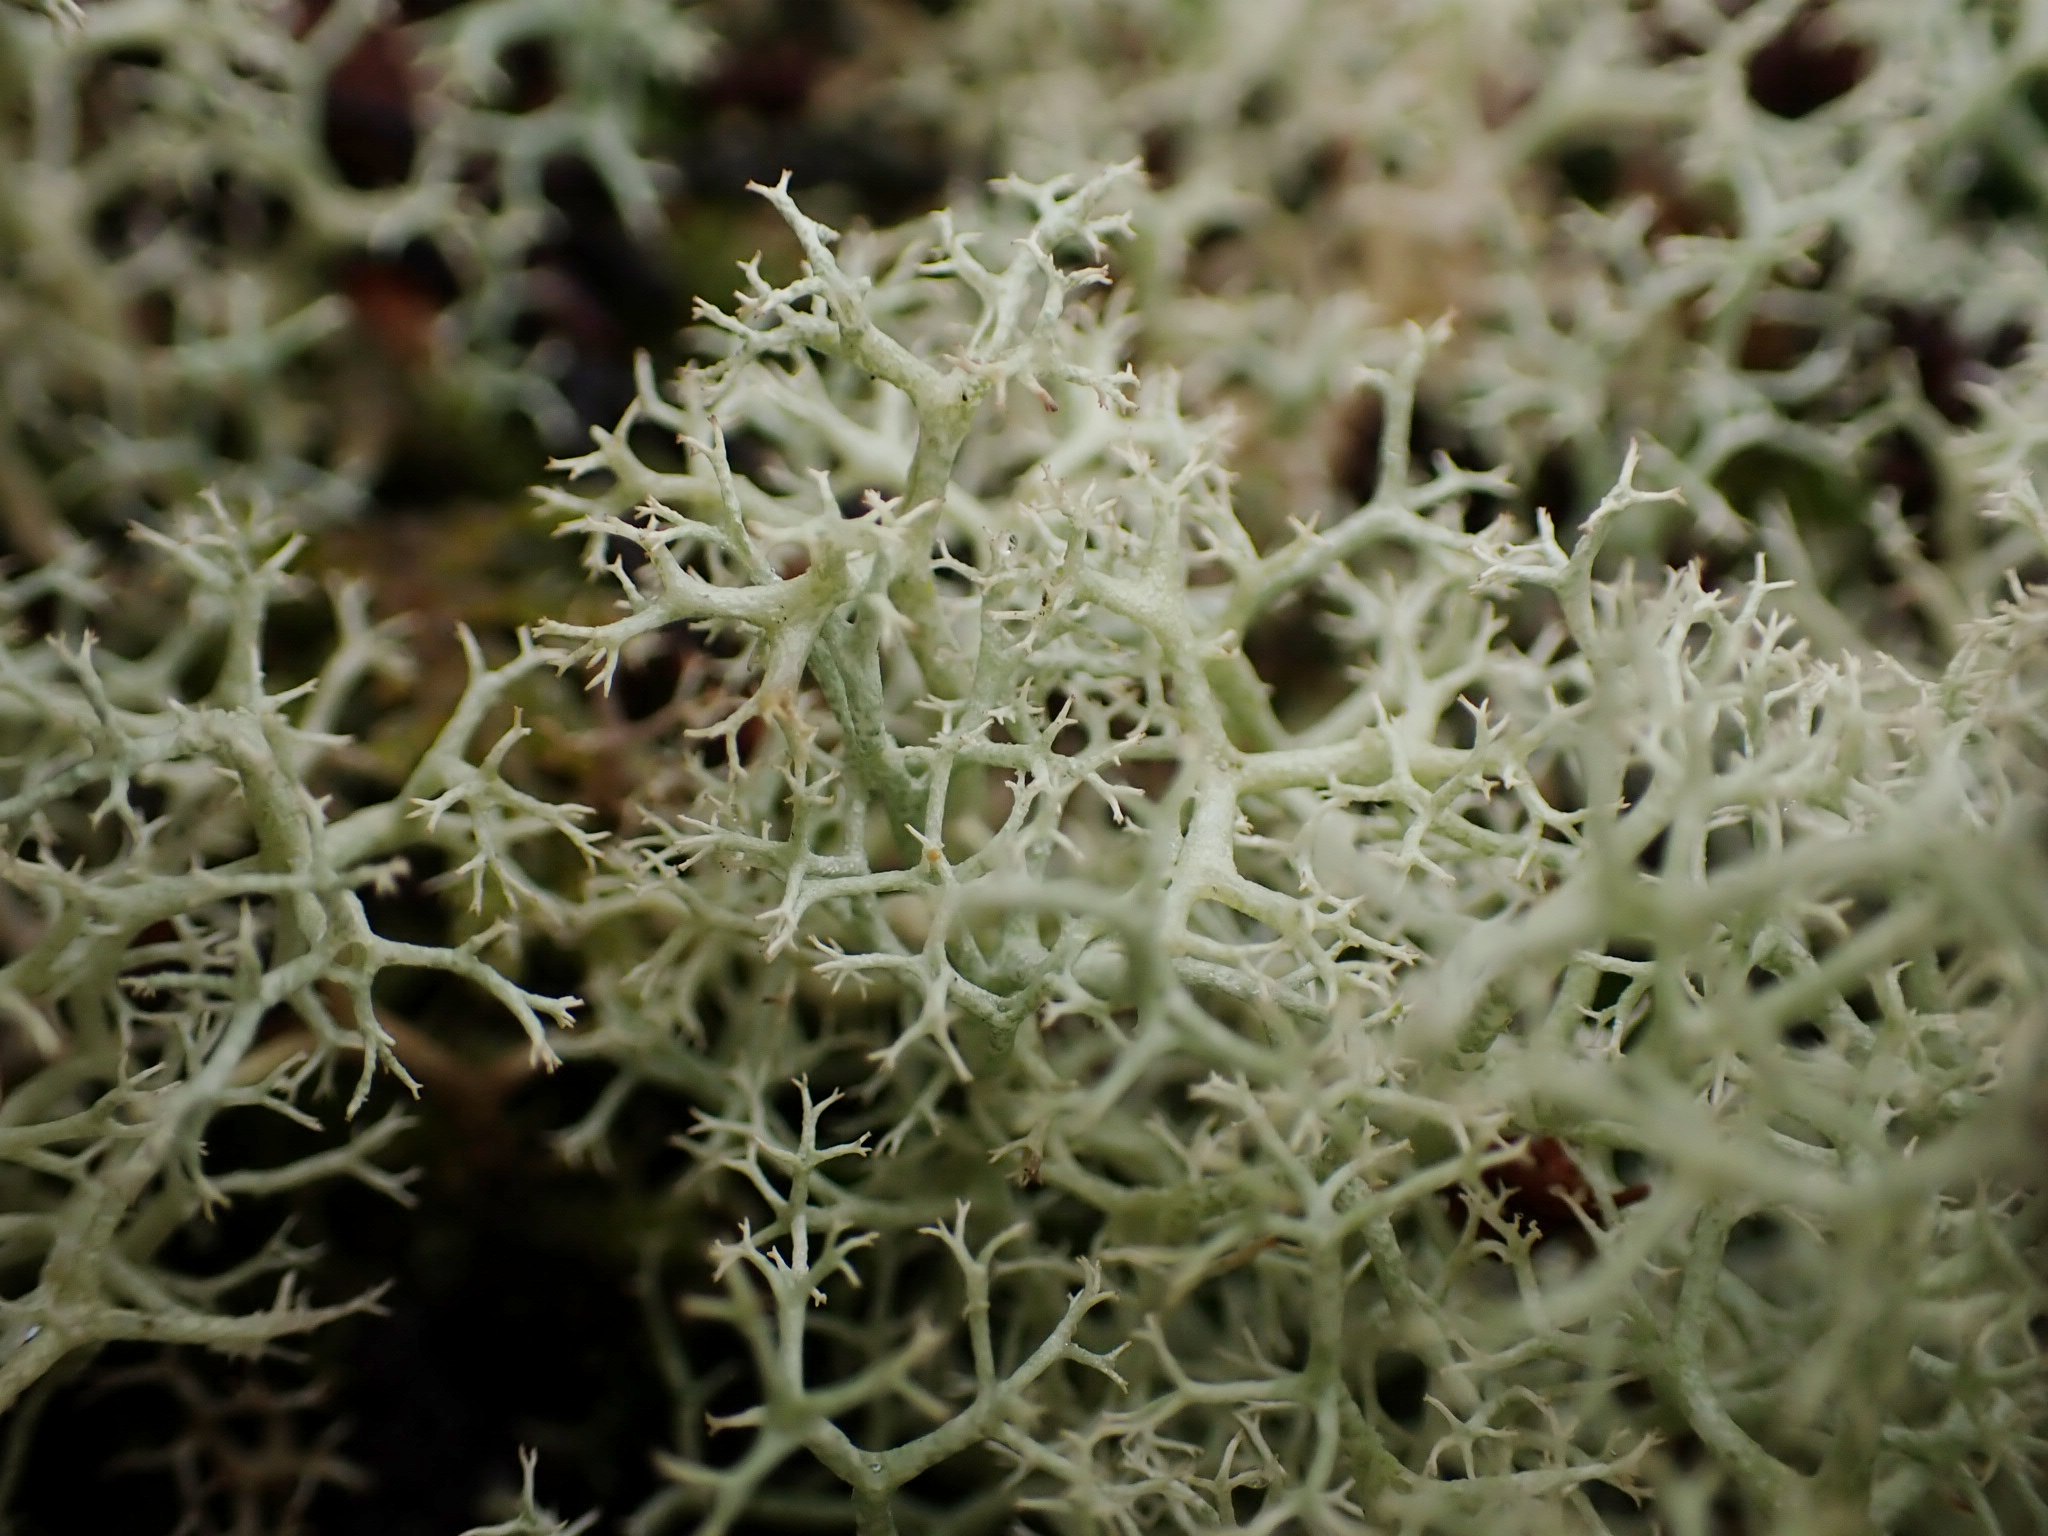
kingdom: Fungi
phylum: Ascomycota
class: Lecanoromycetes
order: Lecanorales
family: Cladoniaceae
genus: Cladonia
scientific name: Cladonia portentosa
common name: hede-rensdyrlav
